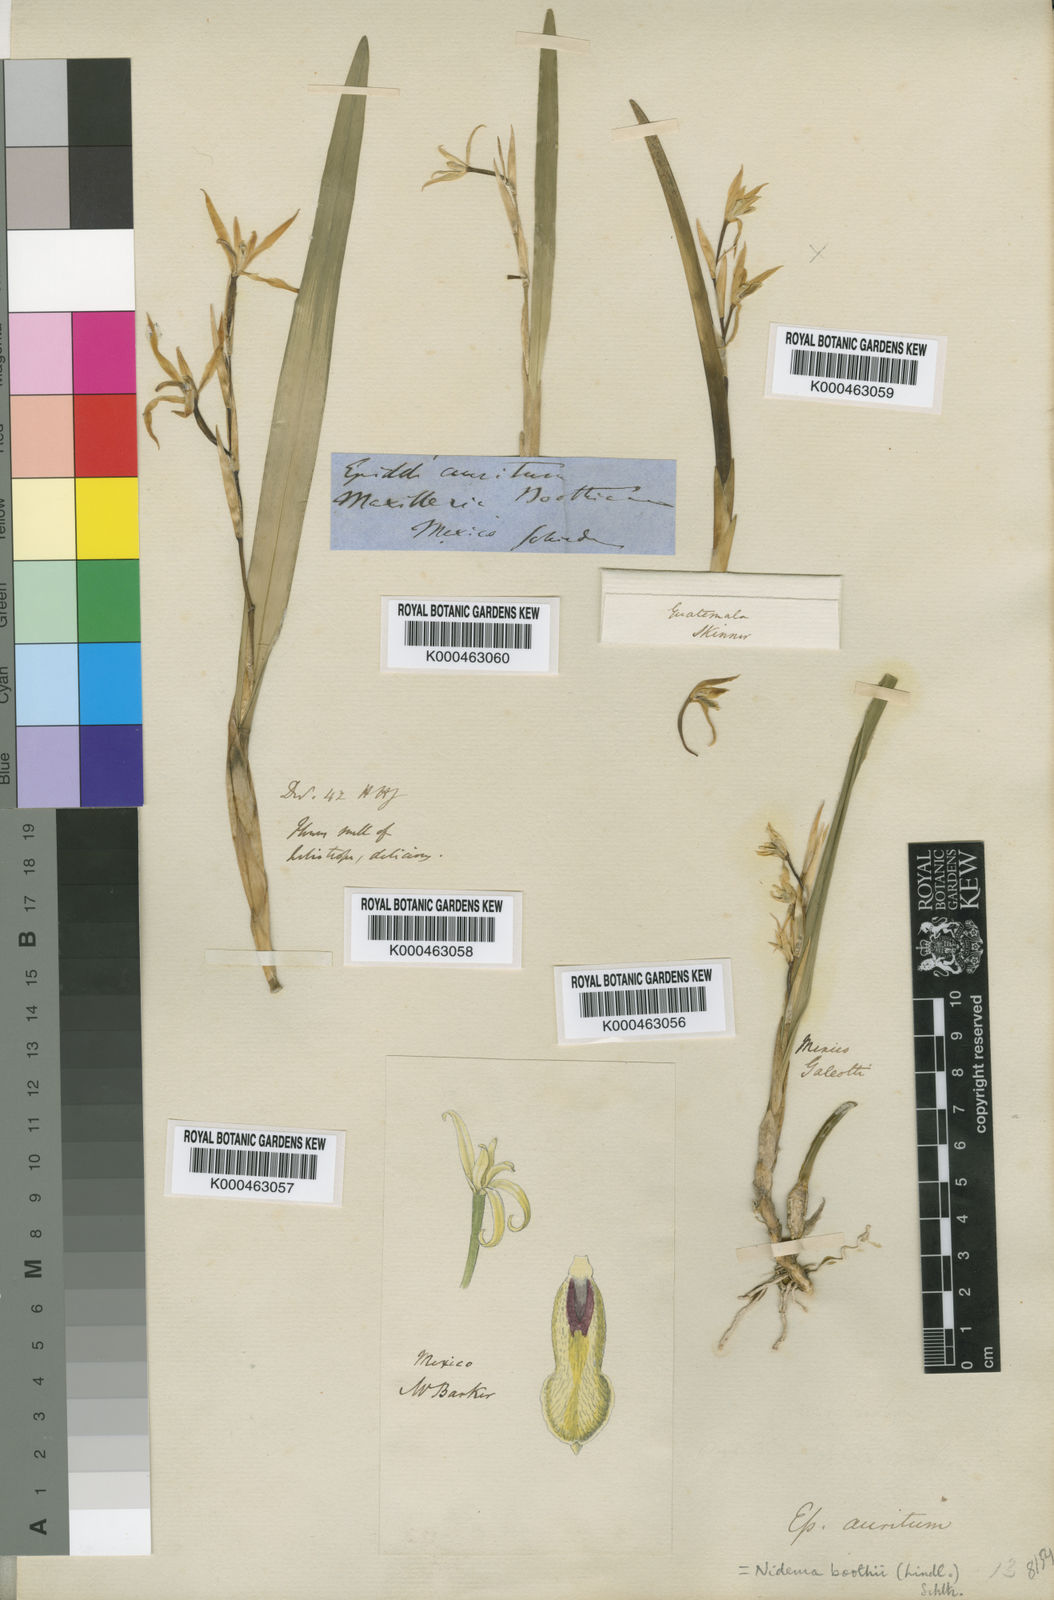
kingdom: Plantae
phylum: Tracheophyta
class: Liliopsida
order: Asparagales
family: Orchidaceae
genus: Nidema
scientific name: Nidema boothii
